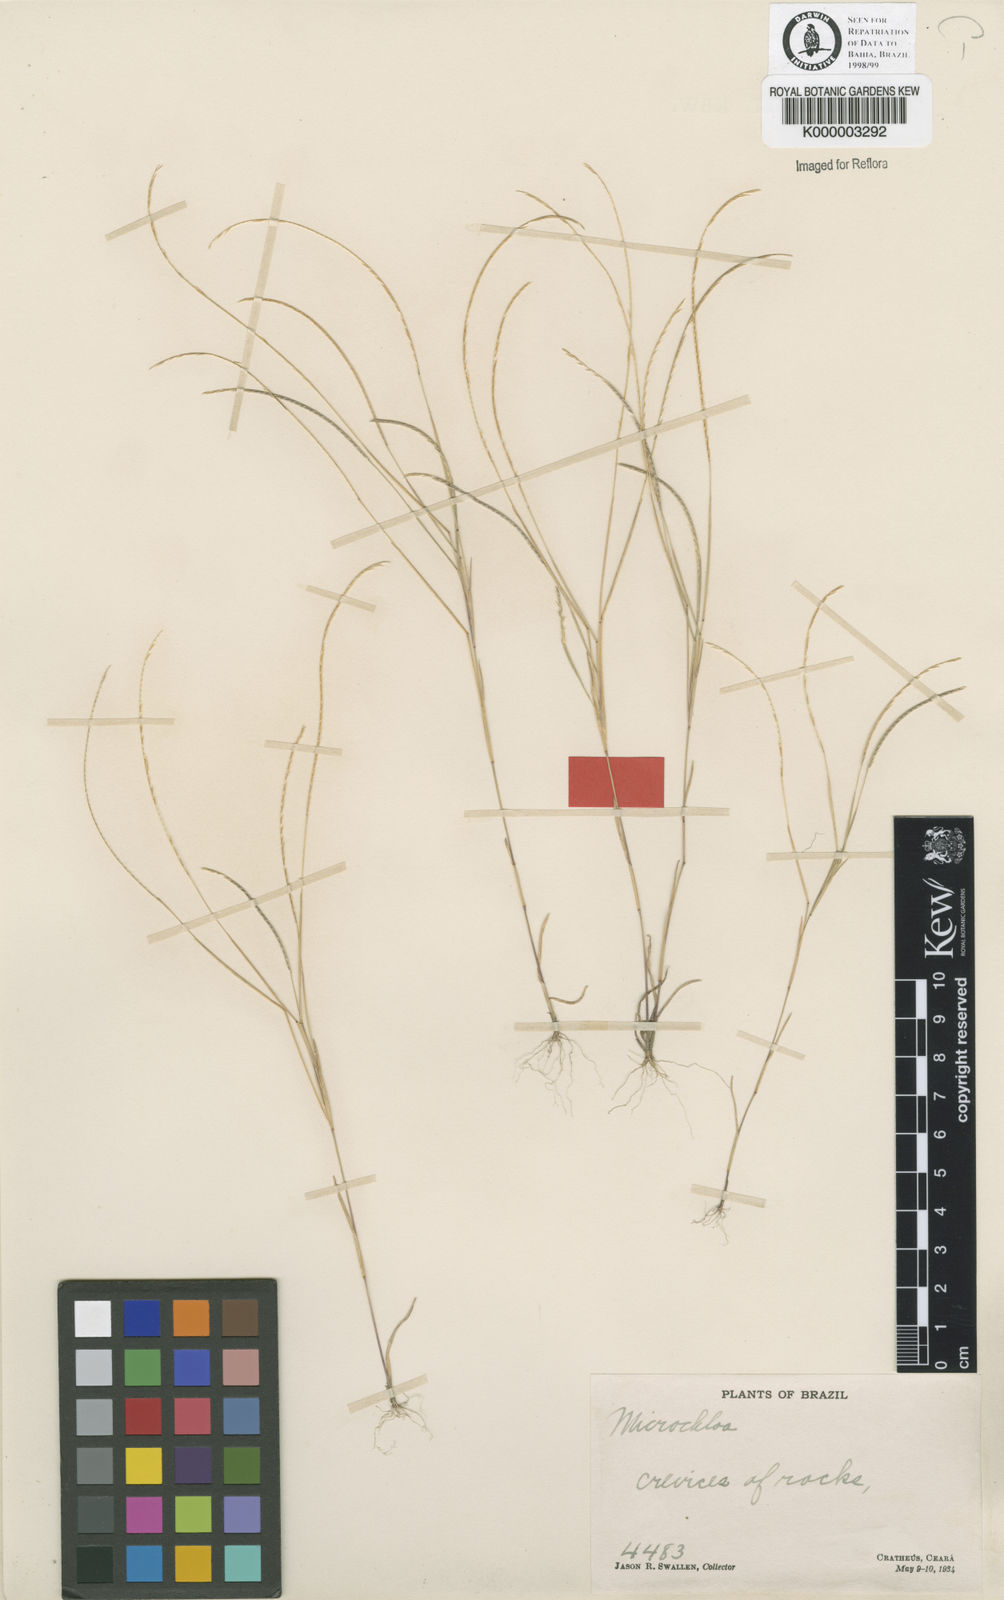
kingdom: Plantae
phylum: Tracheophyta
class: Liliopsida
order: Poales
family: Poaceae
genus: Microchloa
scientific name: Microchloa indica
